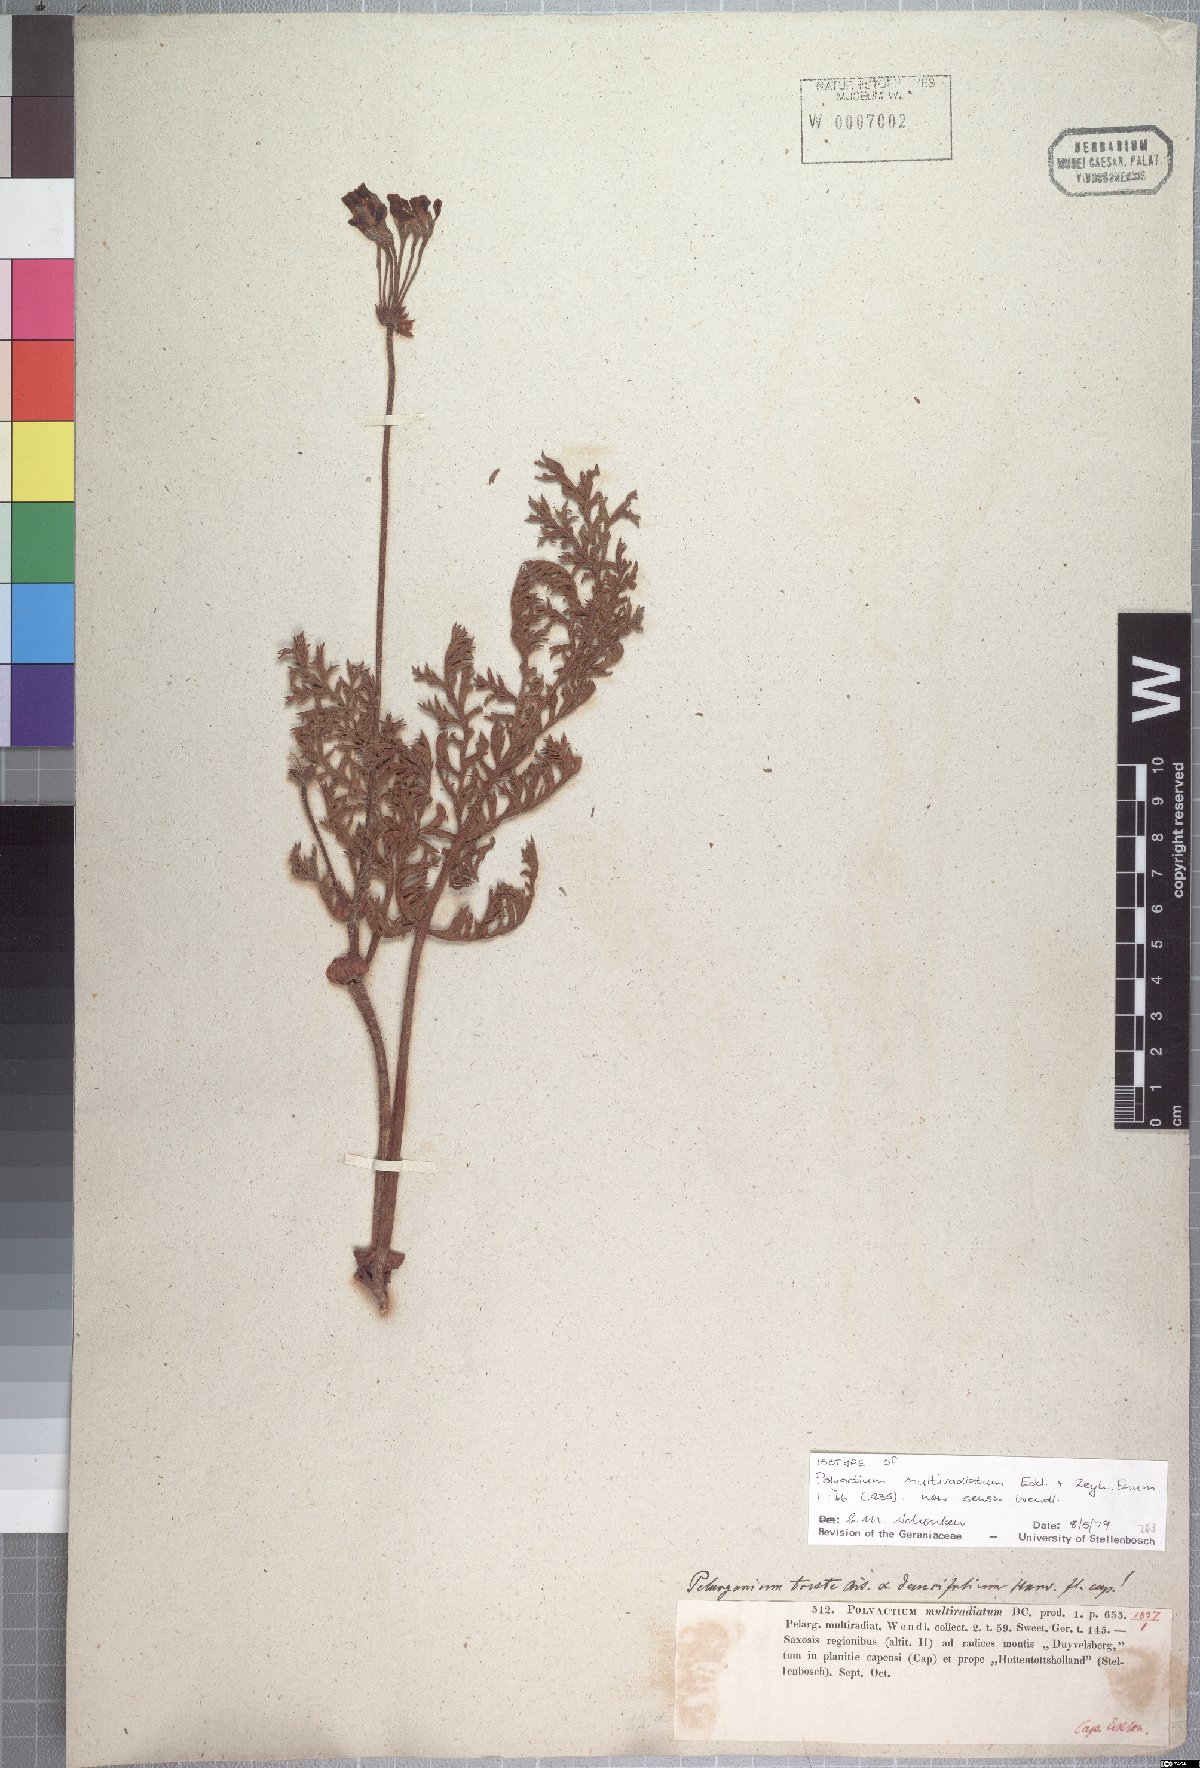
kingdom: Plantae
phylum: Tracheophyta
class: Magnoliopsida
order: Geraniales
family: Geraniaceae
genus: Pelargonium
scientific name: Pelargonium triste
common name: Night-scent pelargonium
